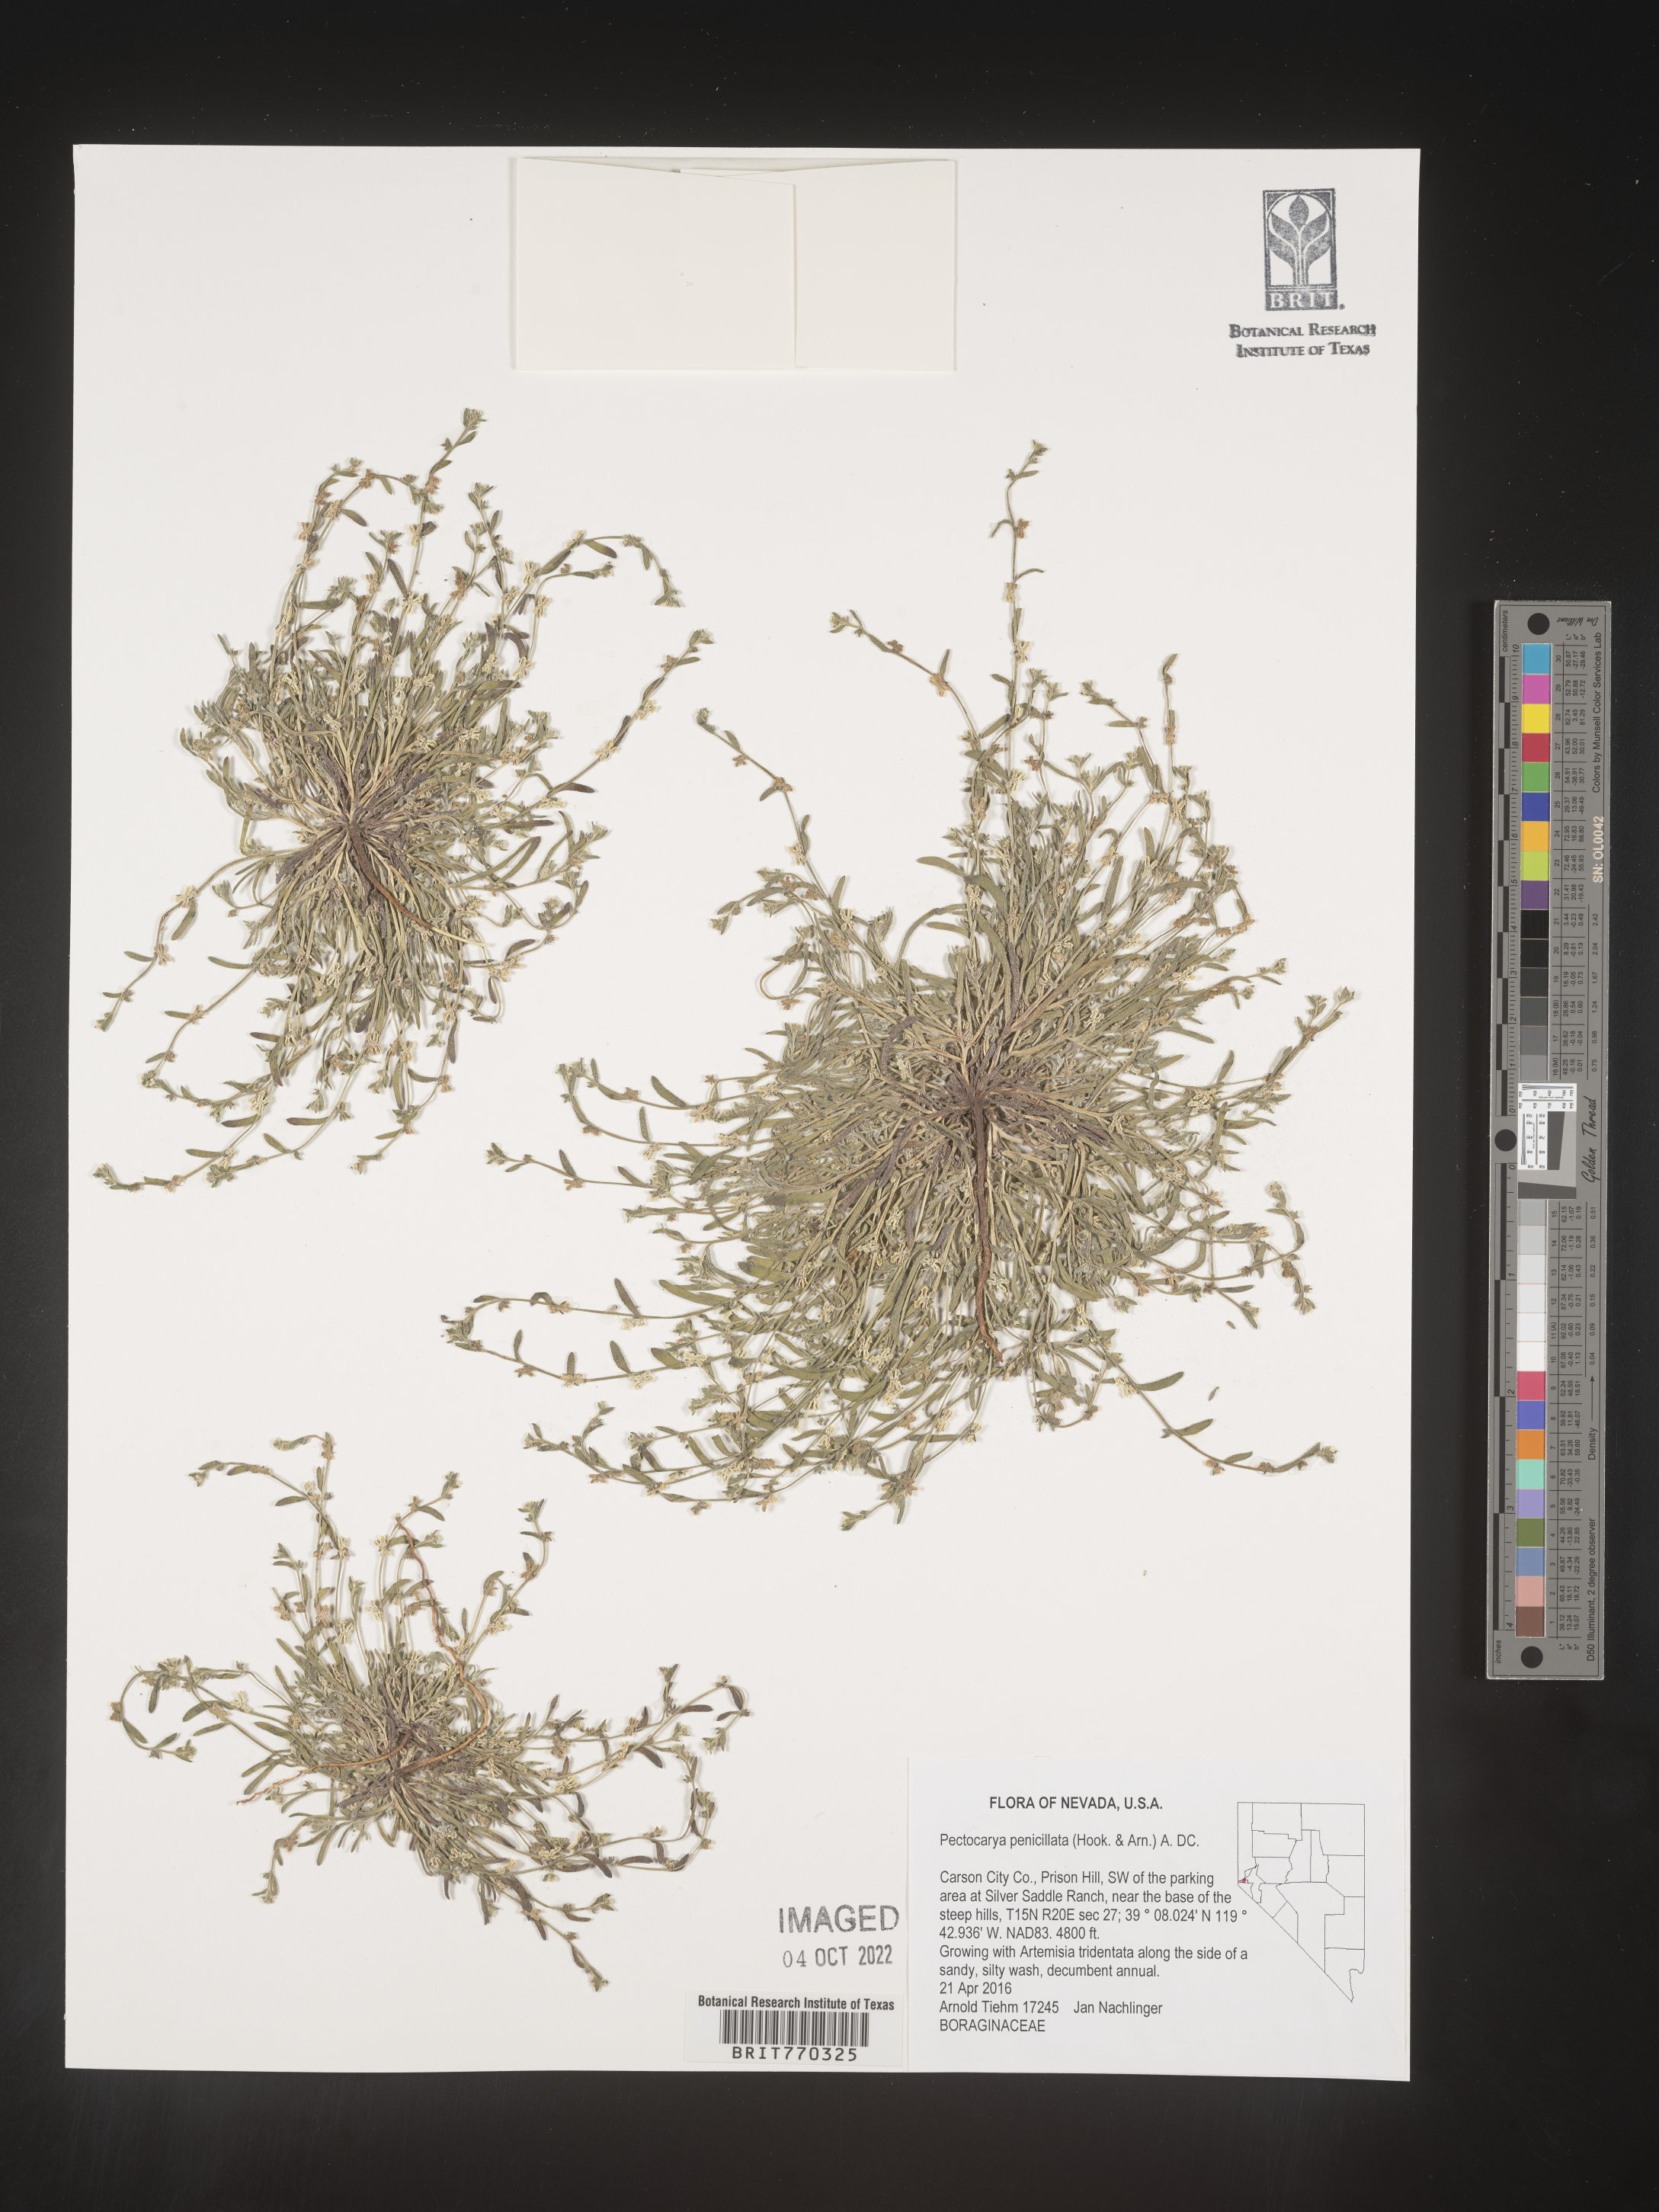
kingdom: Plantae
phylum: Tracheophyta
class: Magnoliopsida
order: Boraginales
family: Boraginaceae
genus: Pectocarya
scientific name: Pectocarya
